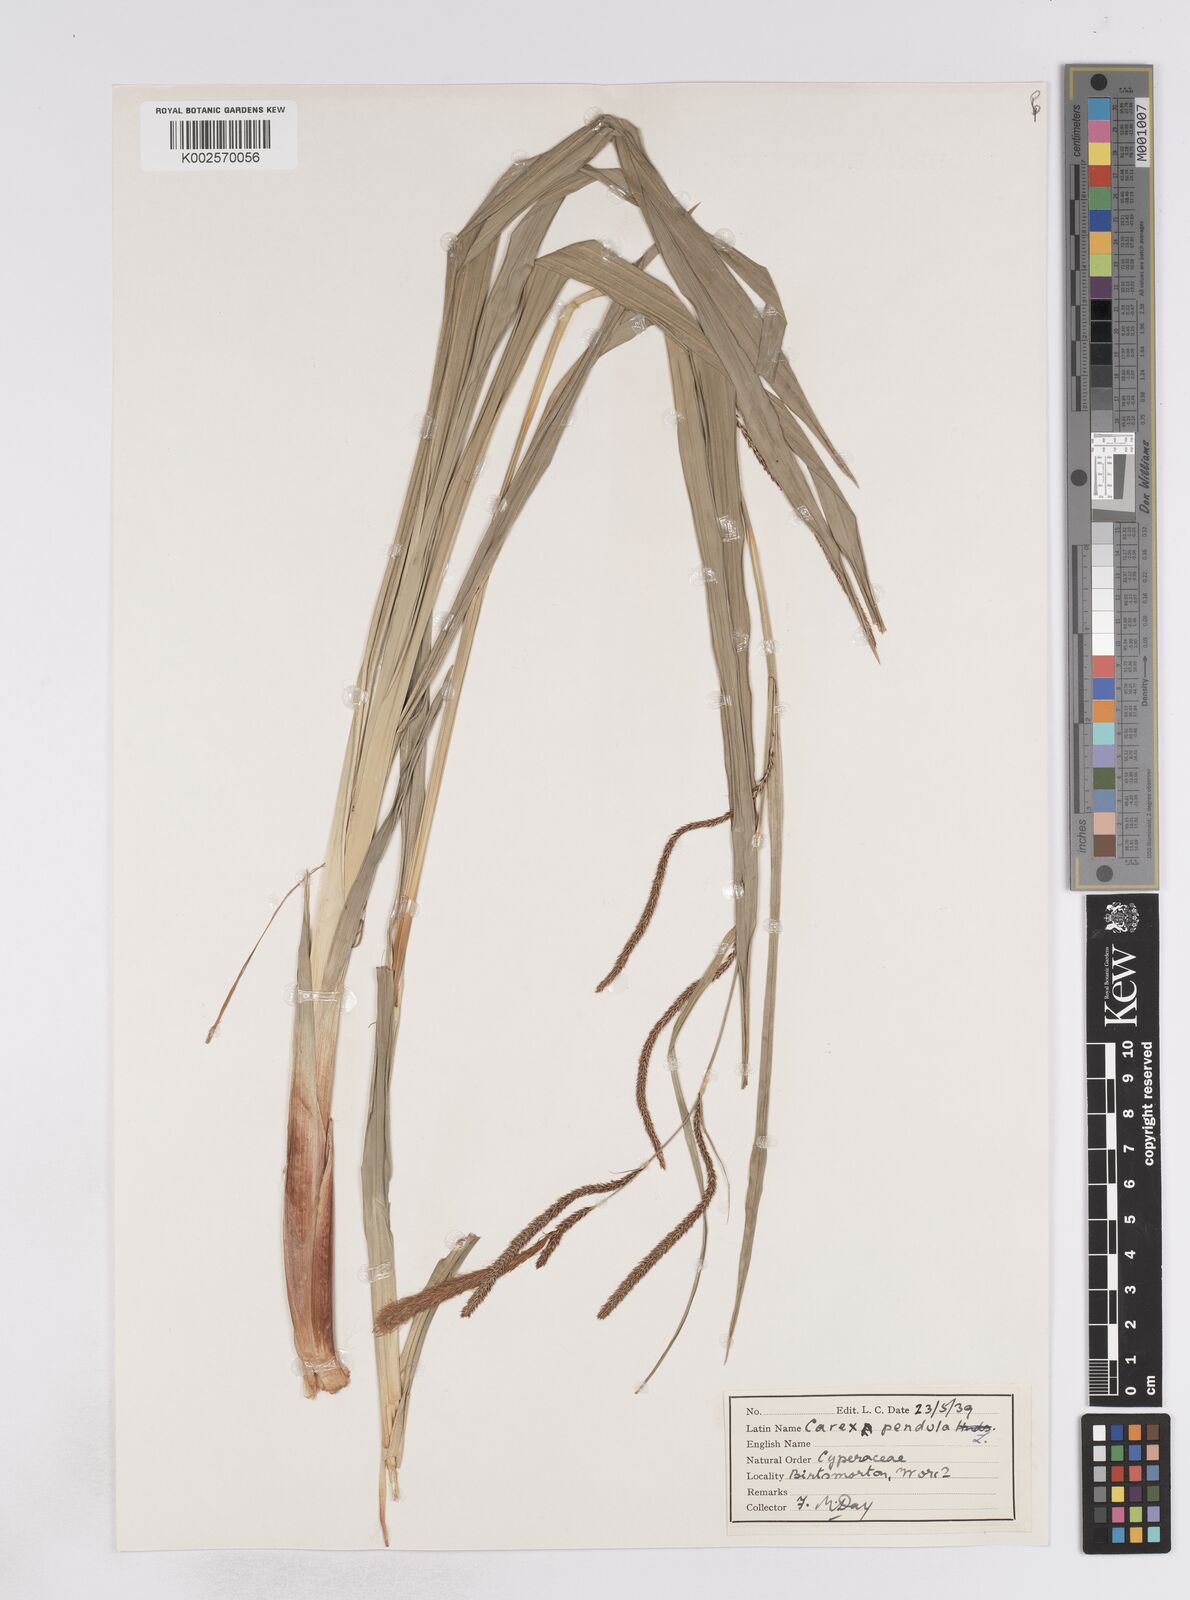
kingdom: Plantae
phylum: Tracheophyta
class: Liliopsida
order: Poales
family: Cyperaceae
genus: Carex
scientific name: Carex pendula
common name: Pendulous sedge
